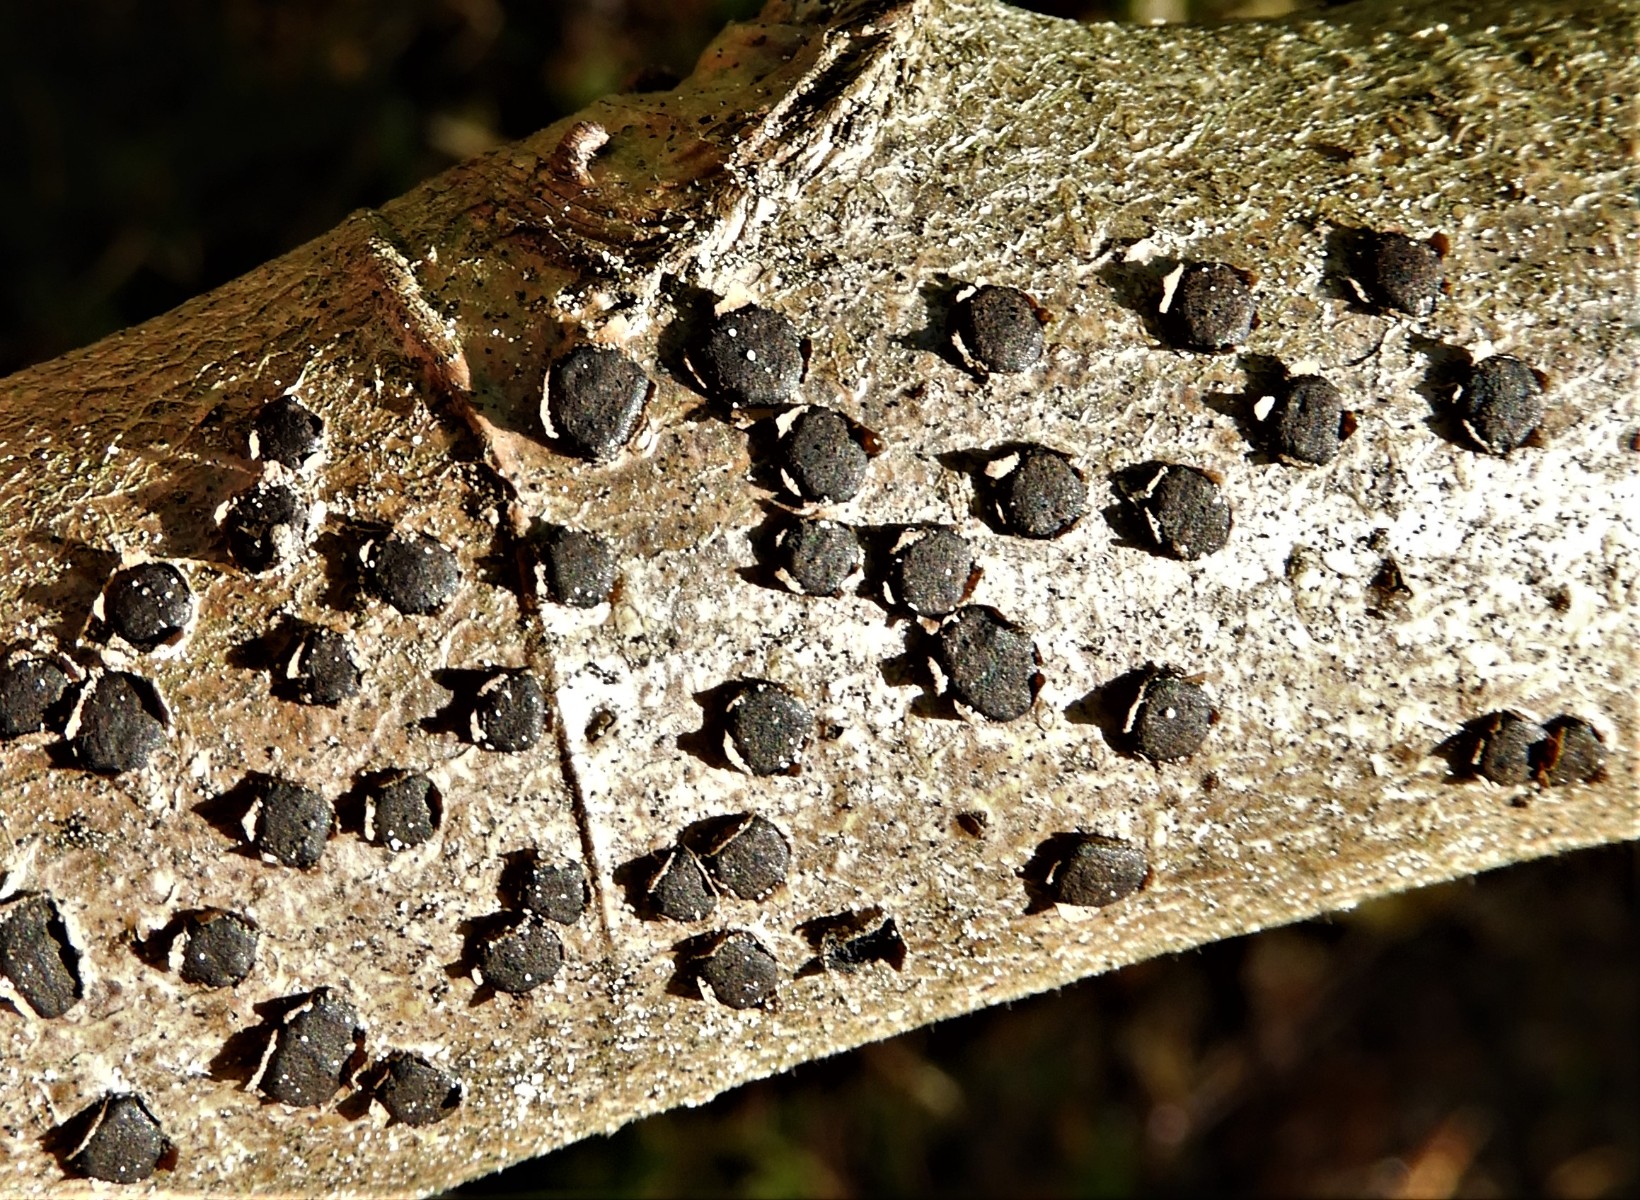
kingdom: Fungi
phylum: Ascomycota
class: Sordariomycetes
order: Xylariales
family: Diatrypaceae
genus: Diatrype
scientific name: Diatrype disciformis
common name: kant-kulskorpe
